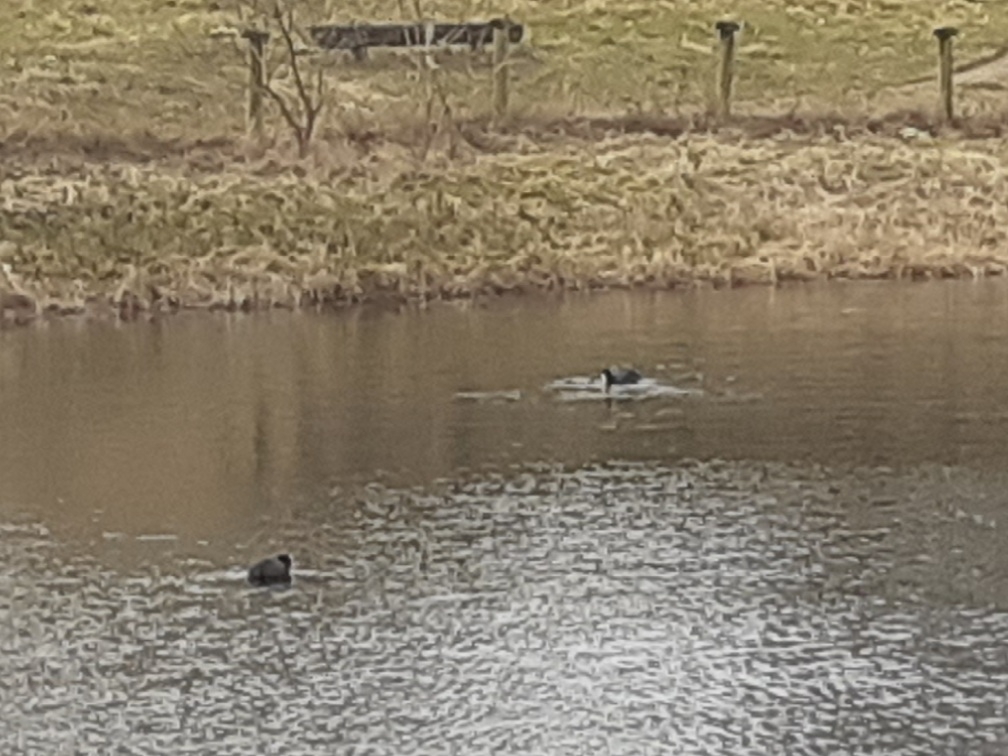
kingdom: Animalia
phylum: Chordata
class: Aves
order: Gruiformes
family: Rallidae
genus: Fulica
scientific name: Fulica atra
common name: Blishøne
